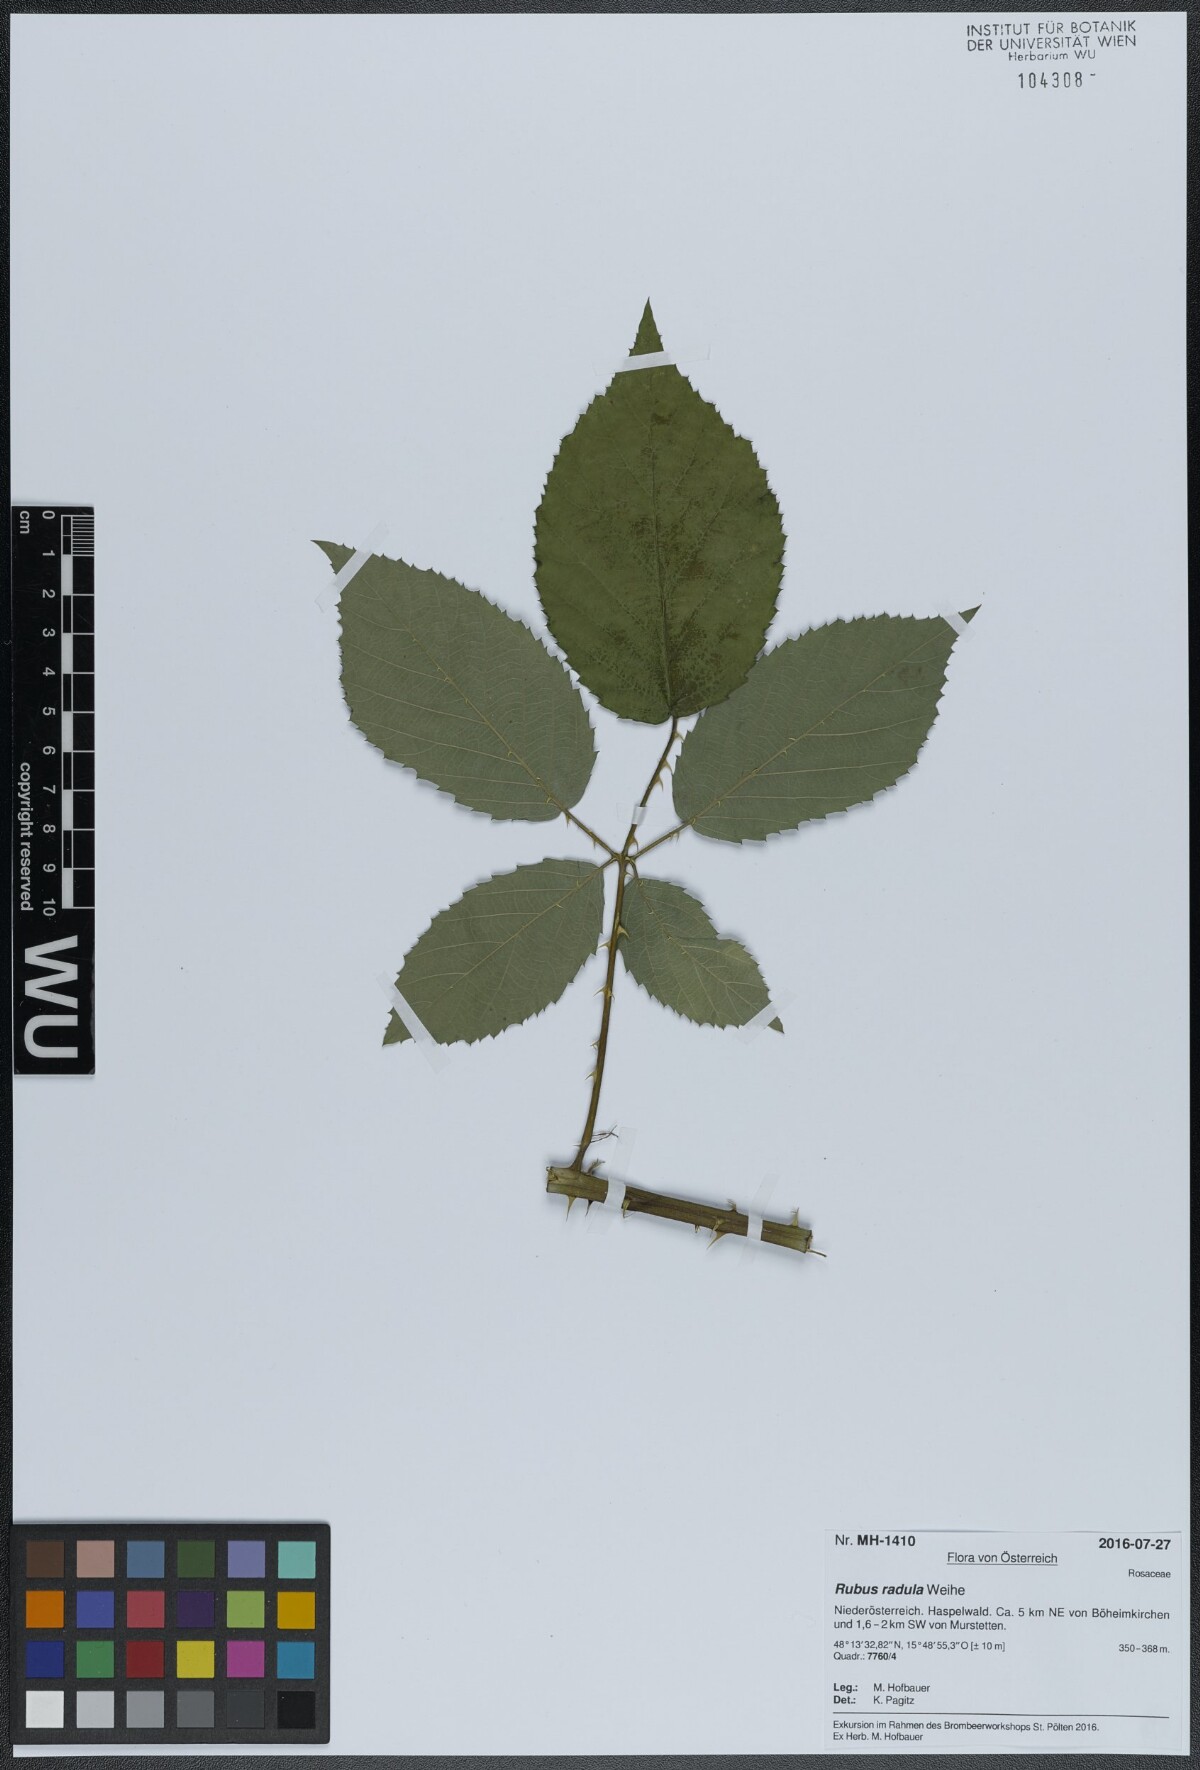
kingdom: Plantae
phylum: Tracheophyta
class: Magnoliopsida
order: Rosales
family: Rosaceae
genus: Rubus
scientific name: Rubus radula
